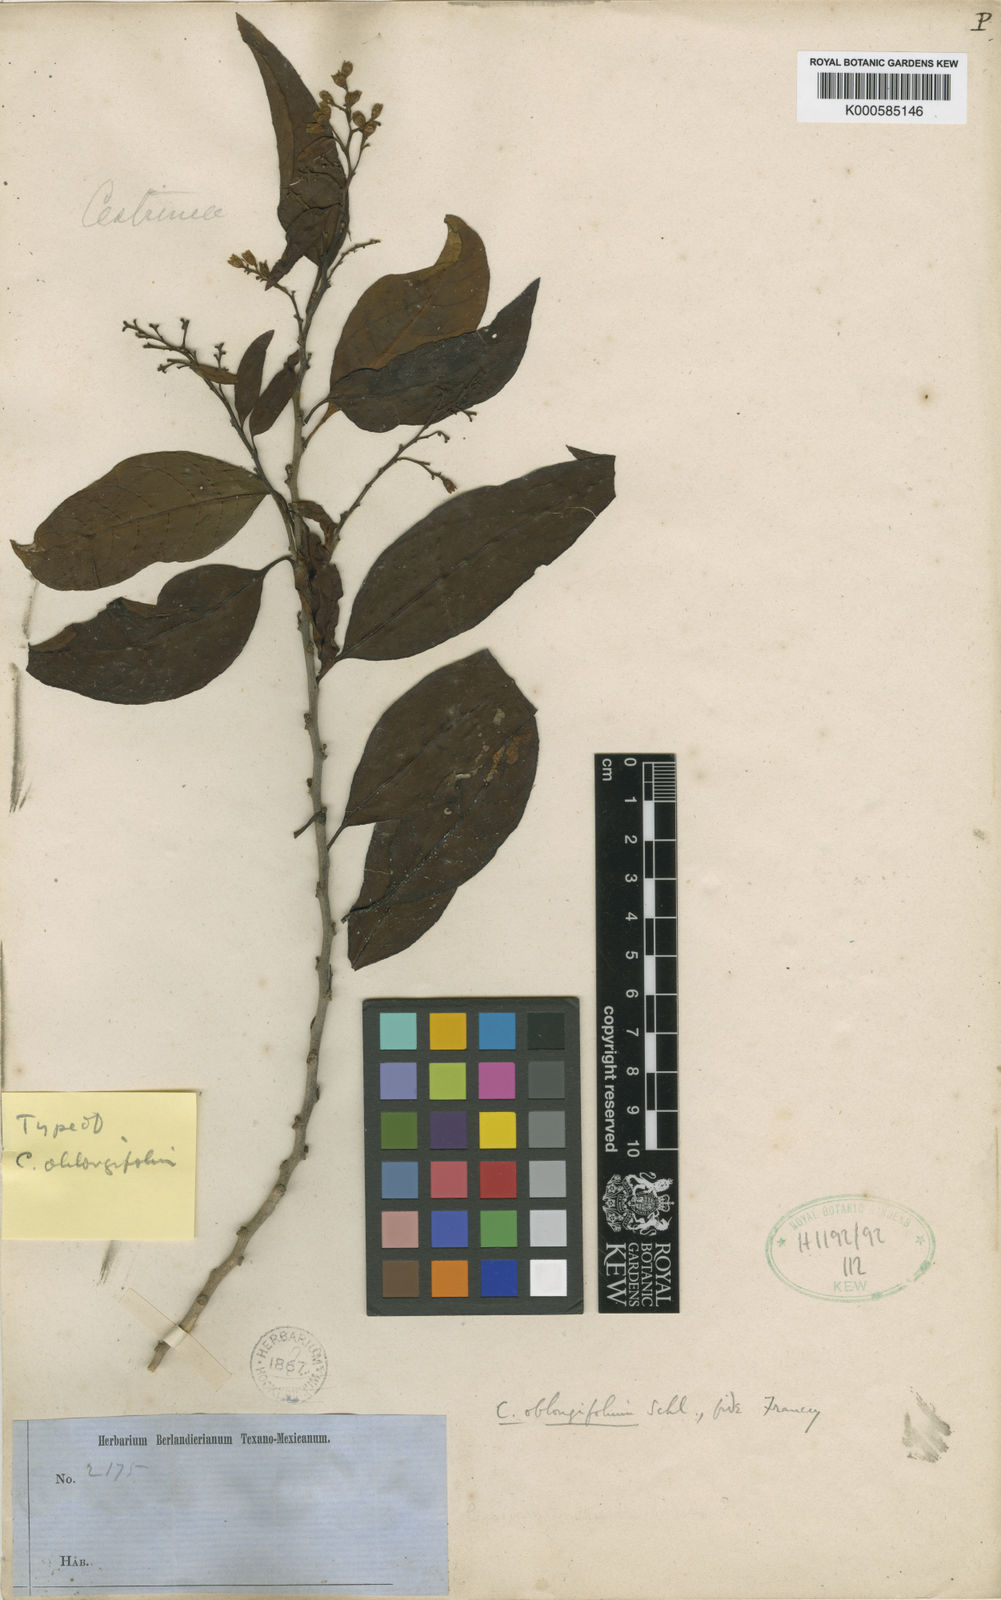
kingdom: Plantae
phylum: Tracheophyta
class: Magnoliopsida
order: Solanales
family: Solanaceae
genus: Cestrum
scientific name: Cestrum oblongifolium
